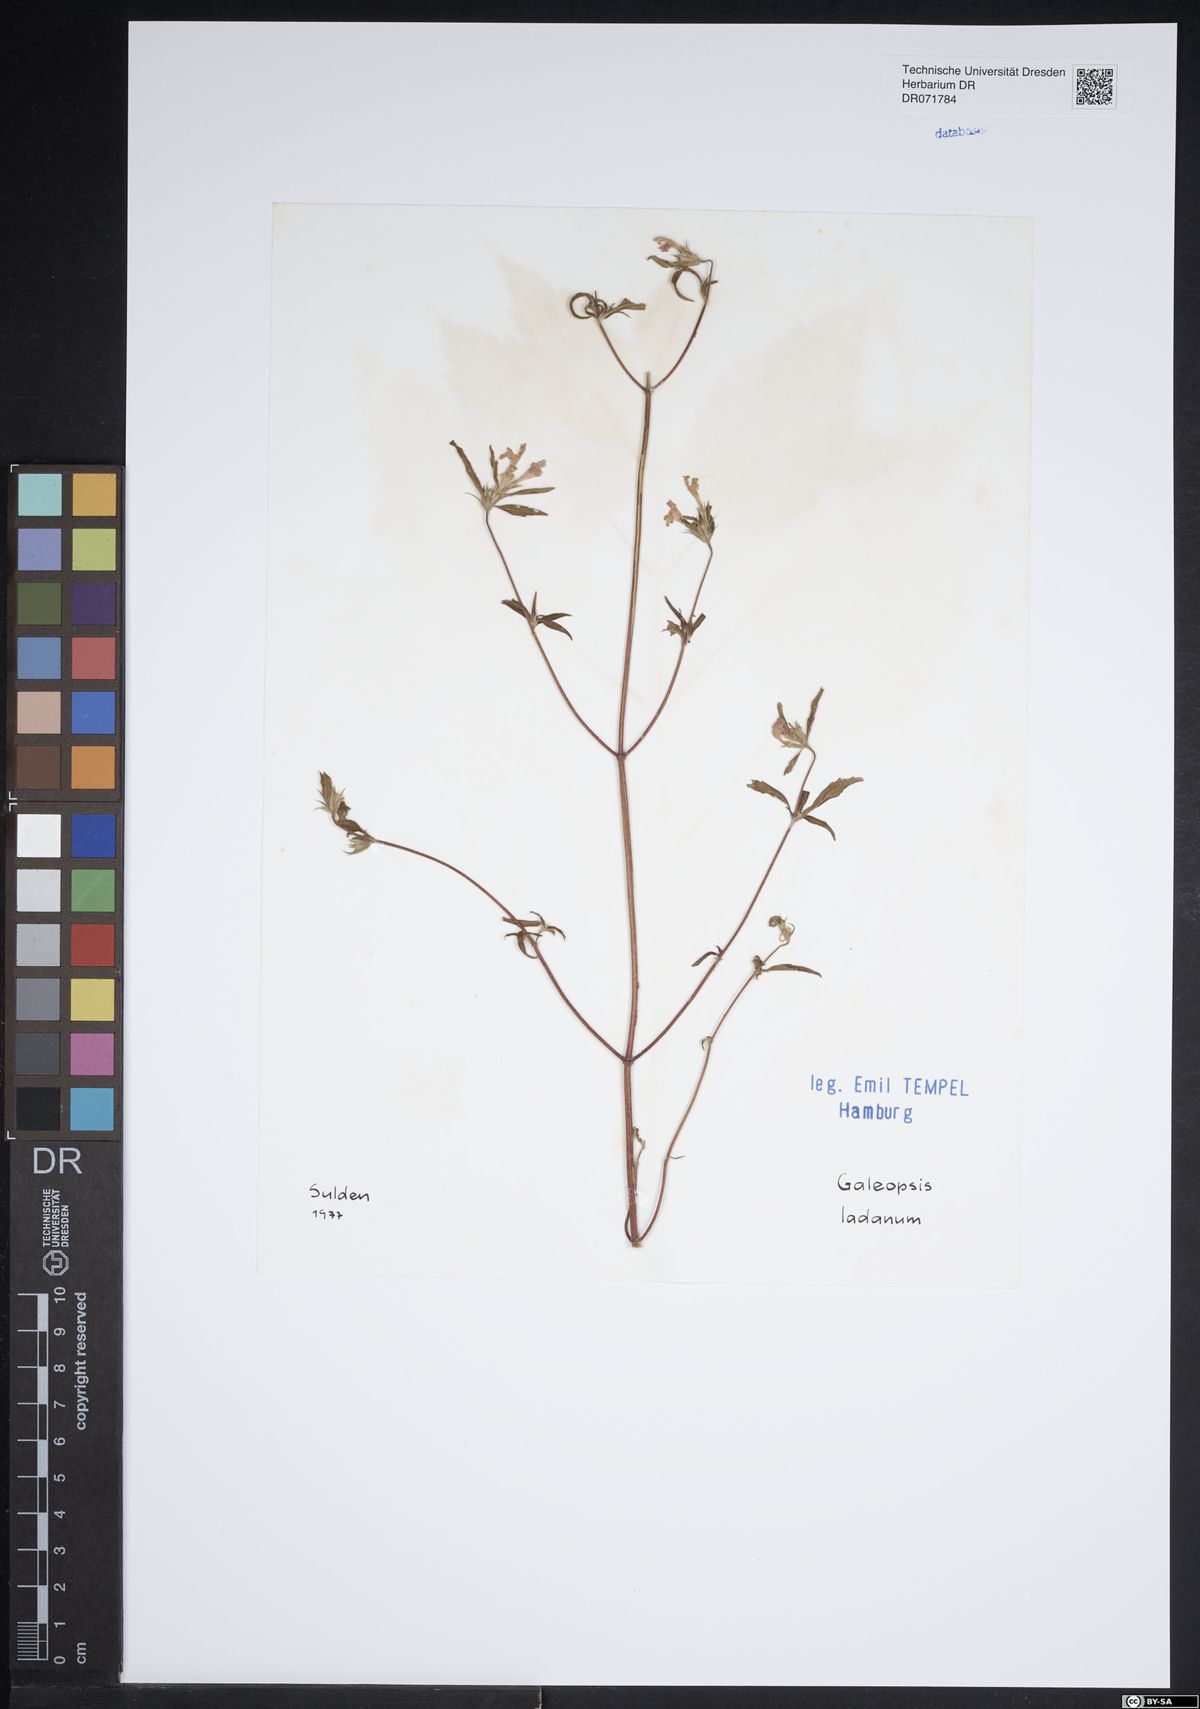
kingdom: Plantae
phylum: Tracheophyta
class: Magnoliopsida
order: Lamiales
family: Lamiaceae
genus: Galeopsis
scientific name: Galeopsis ladanum
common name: Broad-leaved hemp-nettle
